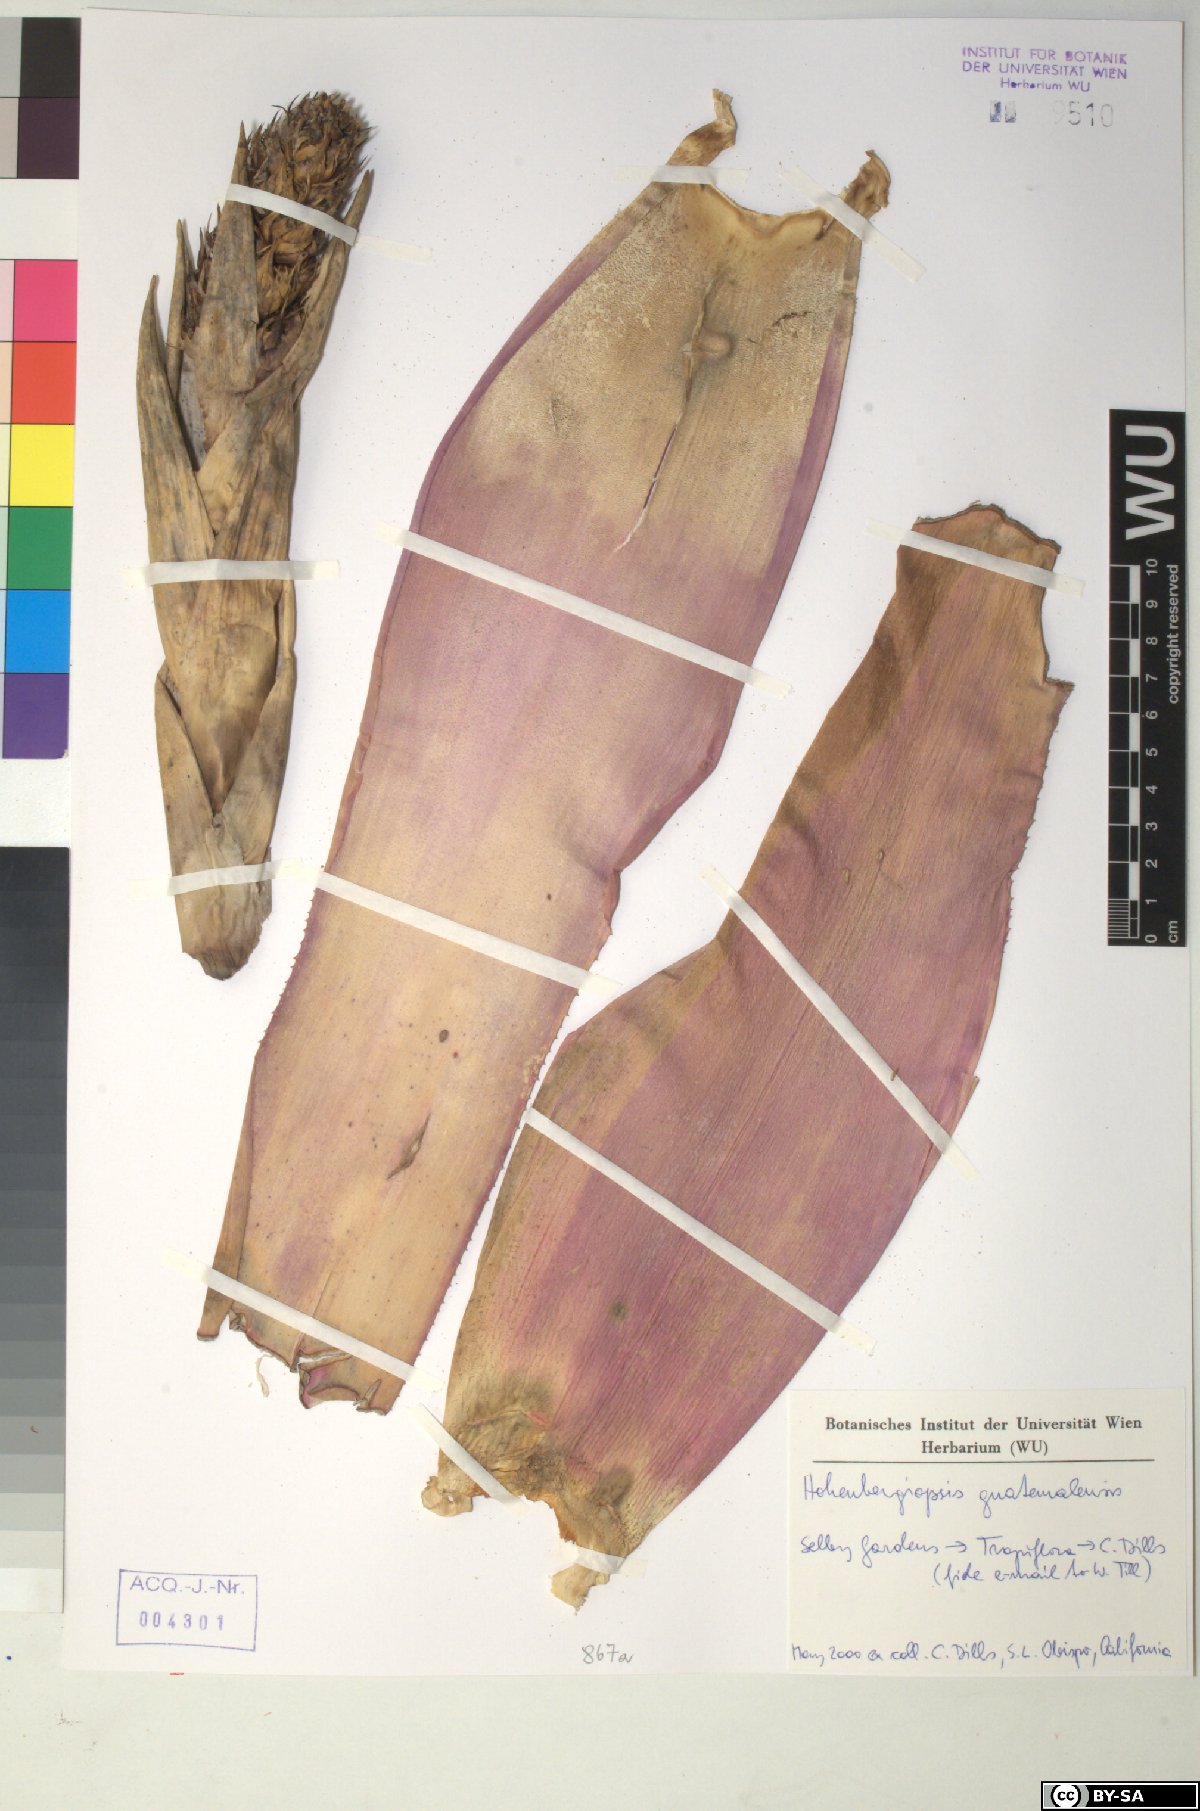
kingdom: Plantae
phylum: Tracheophyta
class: Liliopsida
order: Poales
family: Bromeliaceae
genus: Hohenbergiopsis
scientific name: Hohenbergiopsis guatemalensis
